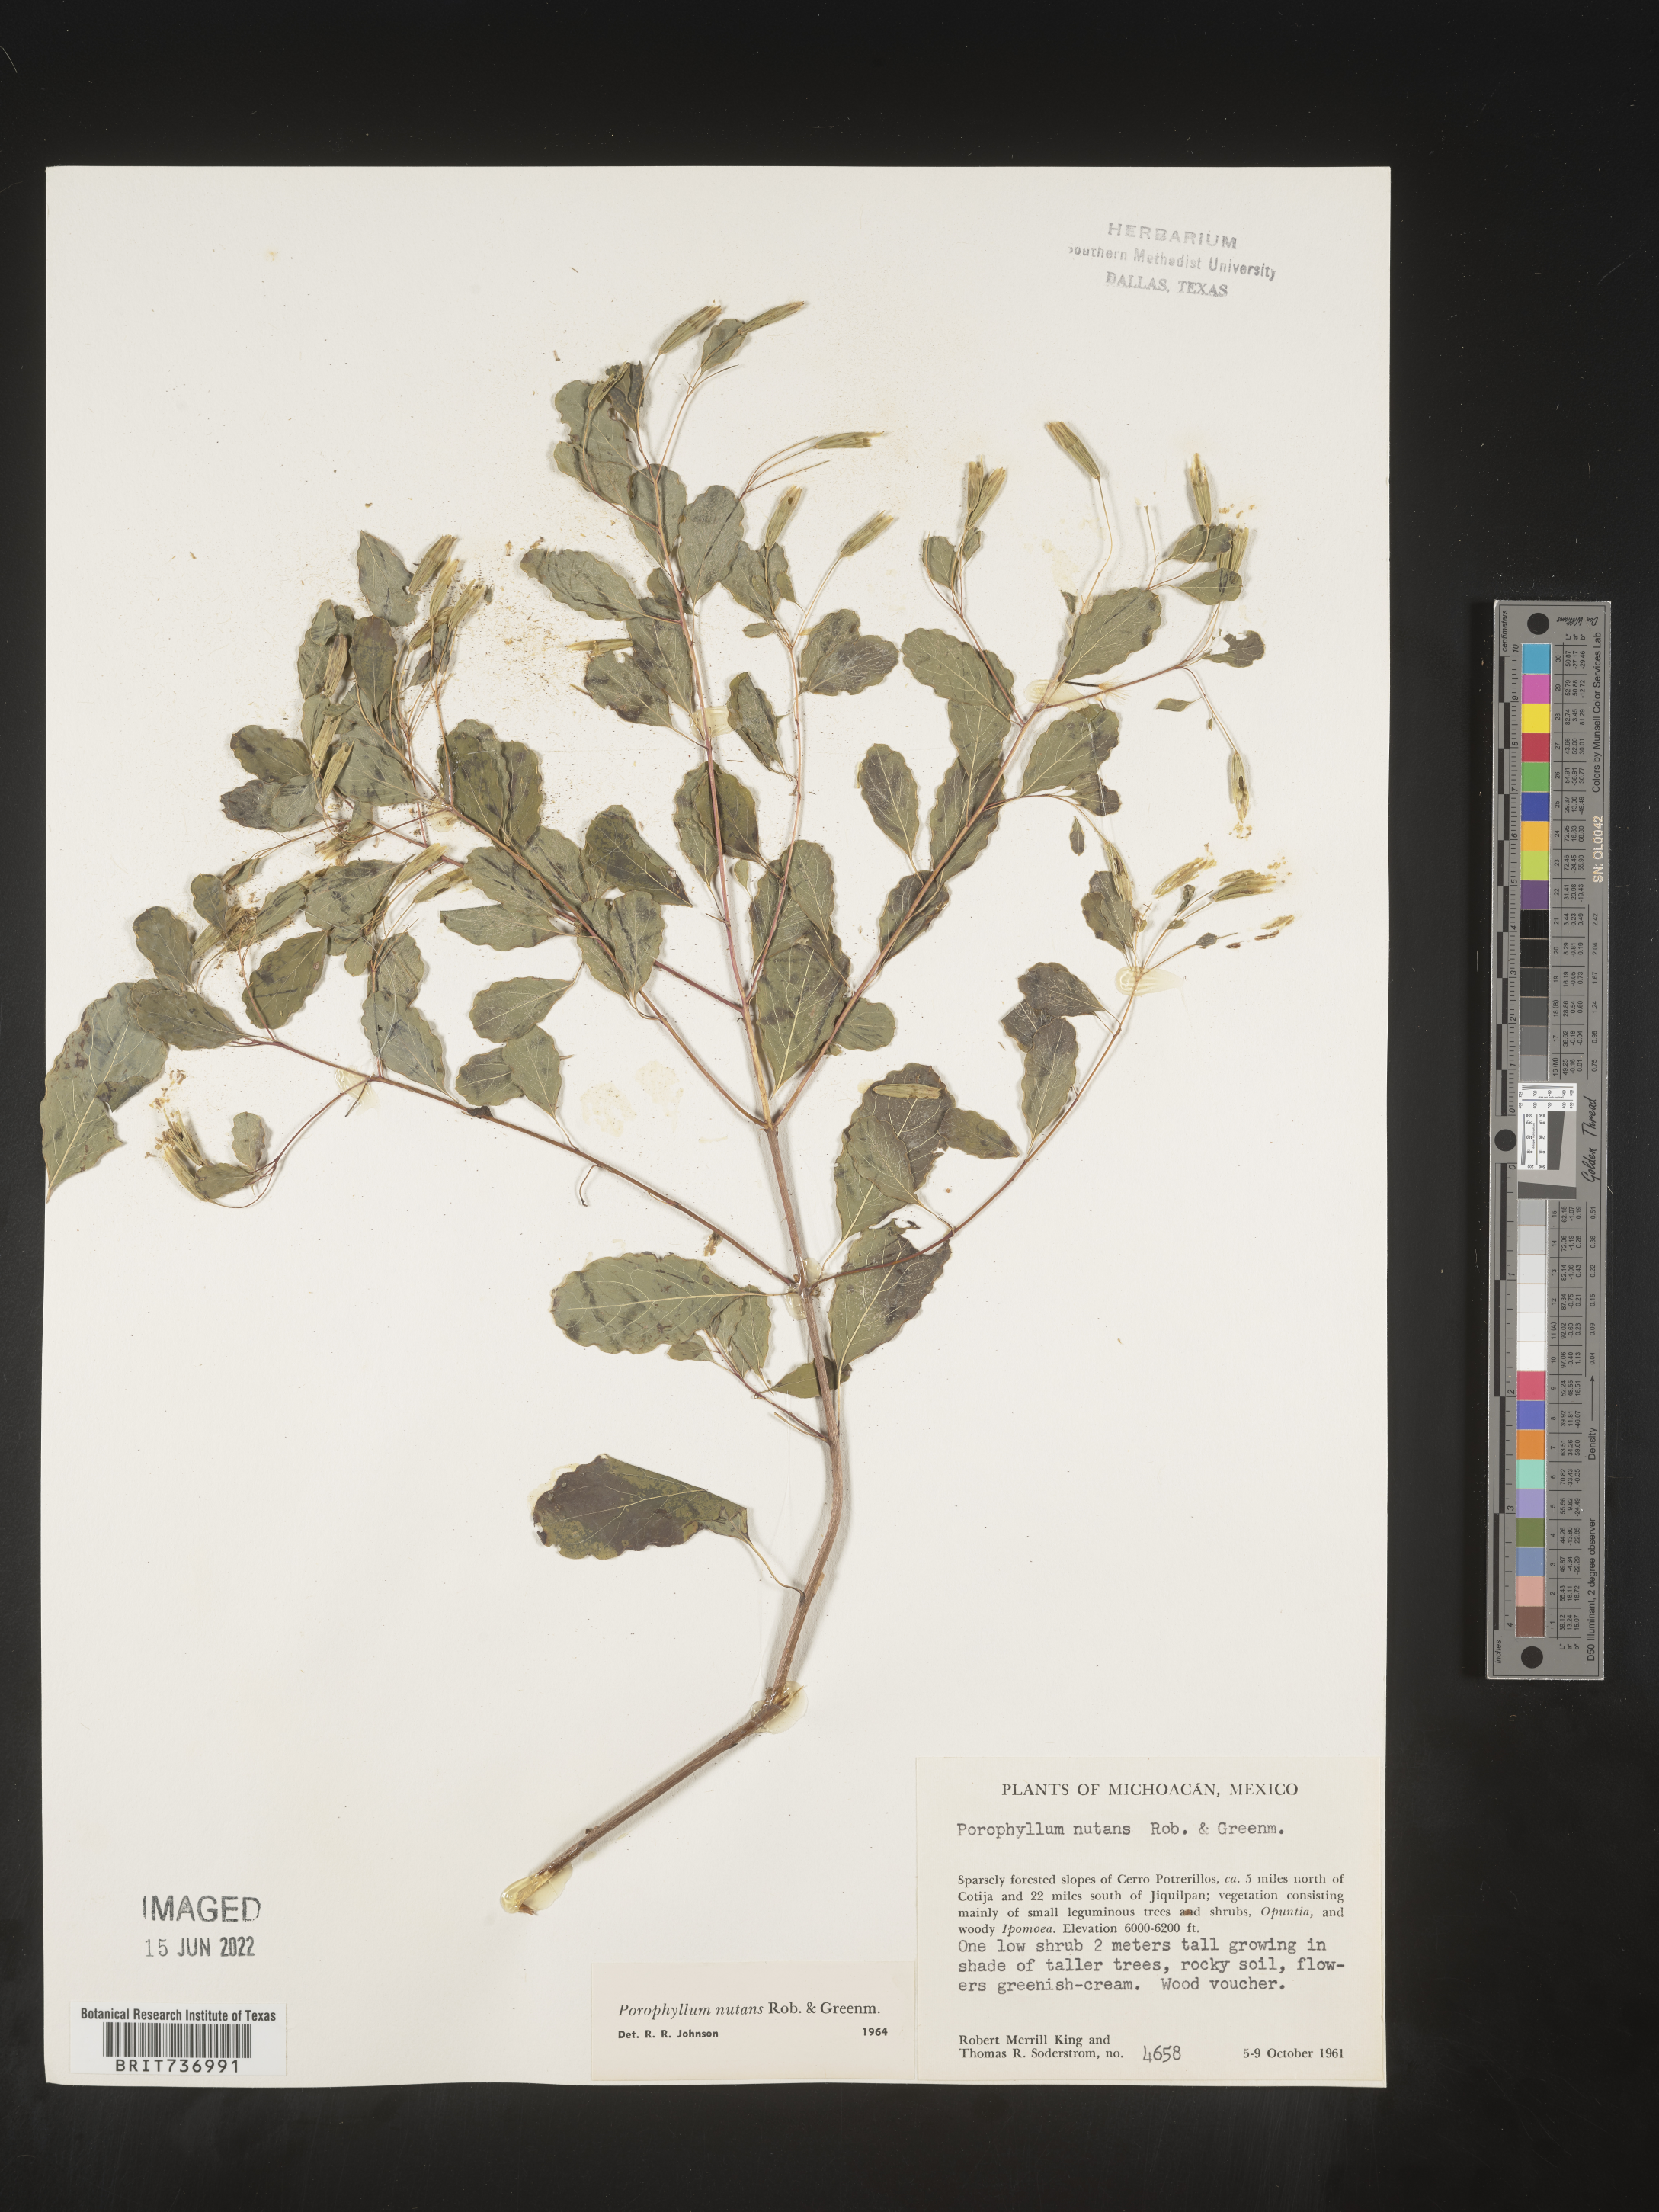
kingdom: Plantae
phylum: Tracheophyta
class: Magnoliopsida
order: Asterales
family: Asteraceae
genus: Porophyllum
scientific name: Porophyllum
